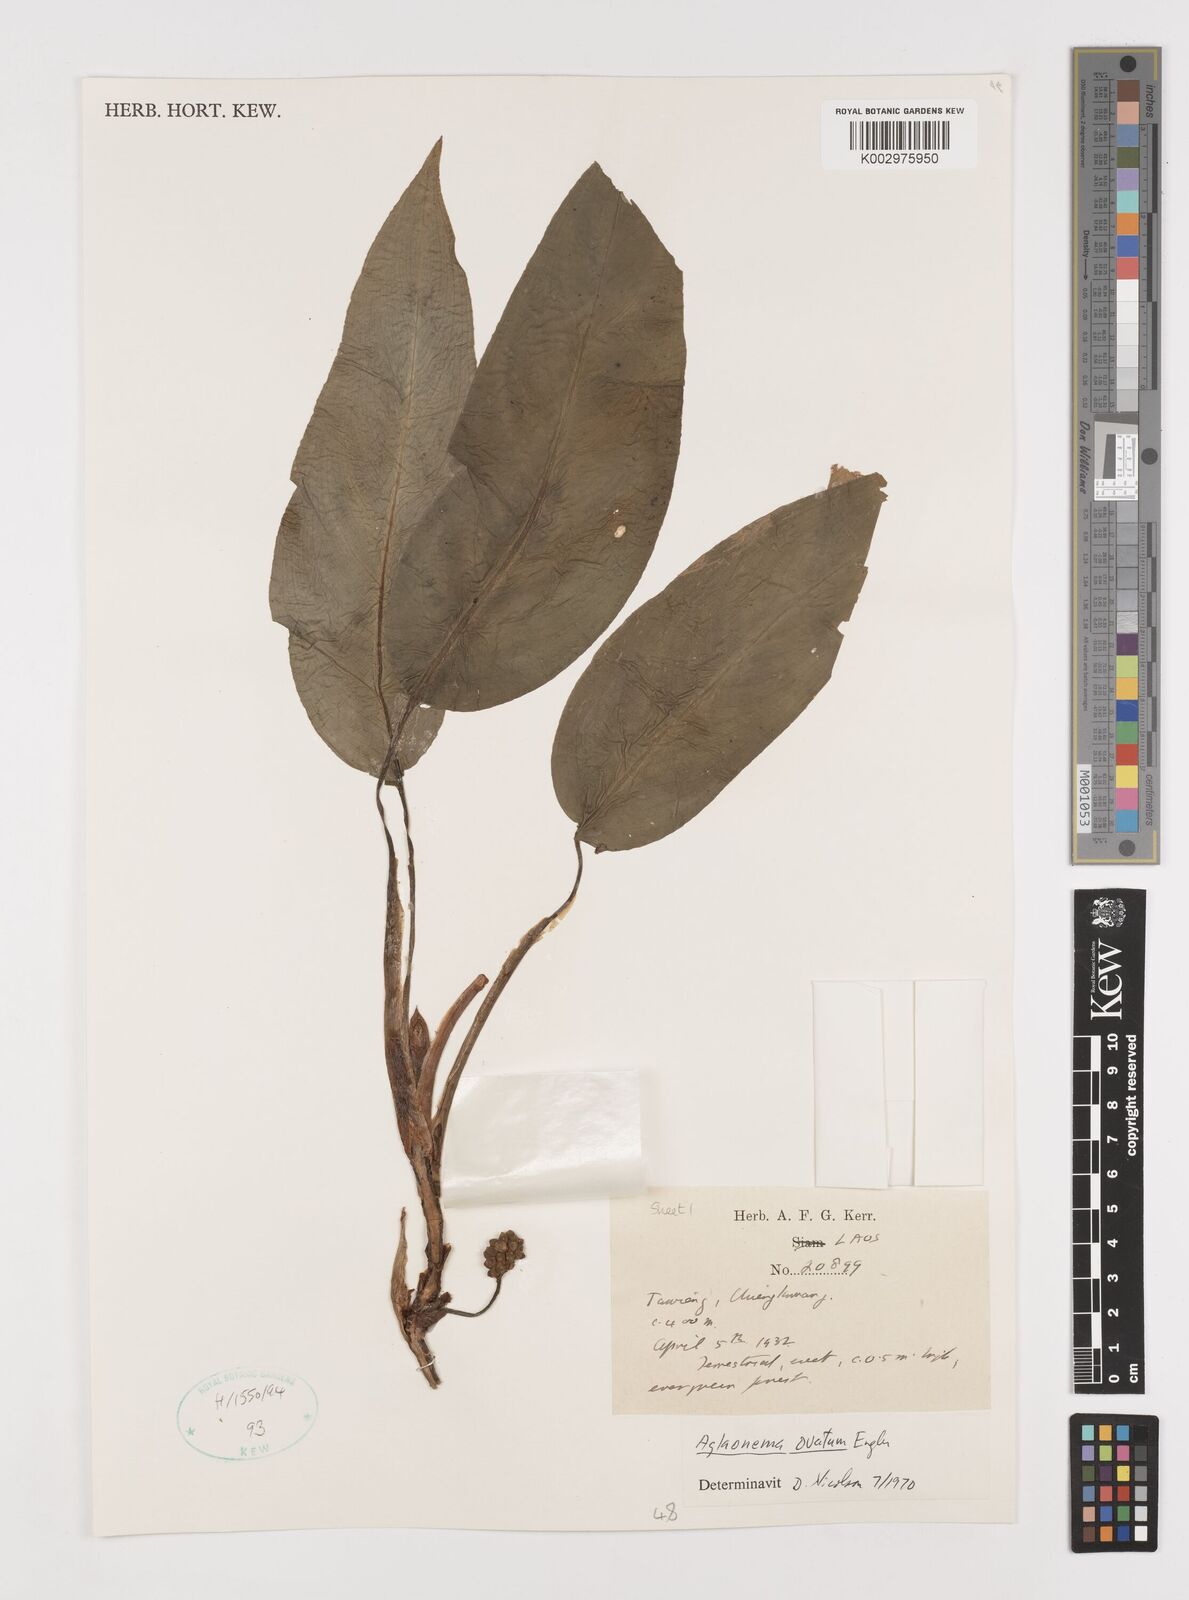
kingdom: Plantae
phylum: Tracheophyta
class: Liliopsida
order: Alismatales
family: Araceae
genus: Aglaonema
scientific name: Aglaonema ovatum
